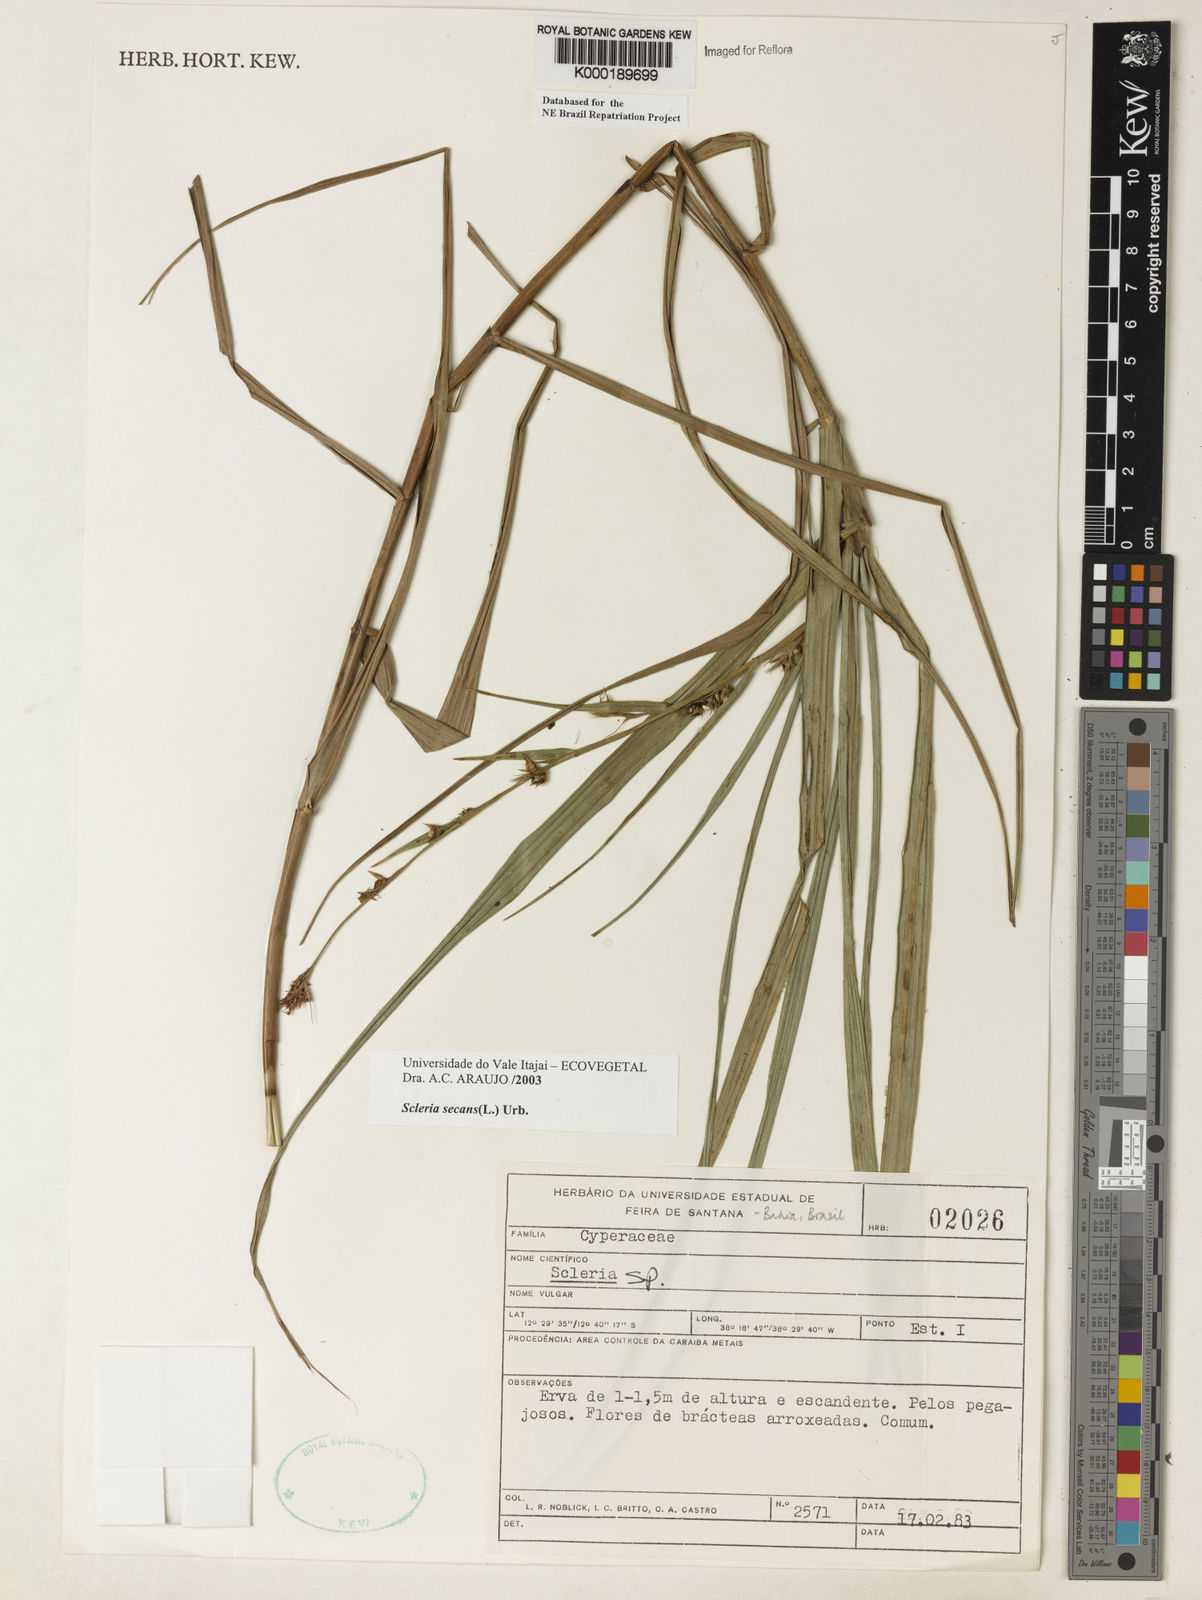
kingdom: Plantae
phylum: Tracheophyta
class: Liliopsida
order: Poales
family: Cyperaceae
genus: Scleria
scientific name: Scleria secans
